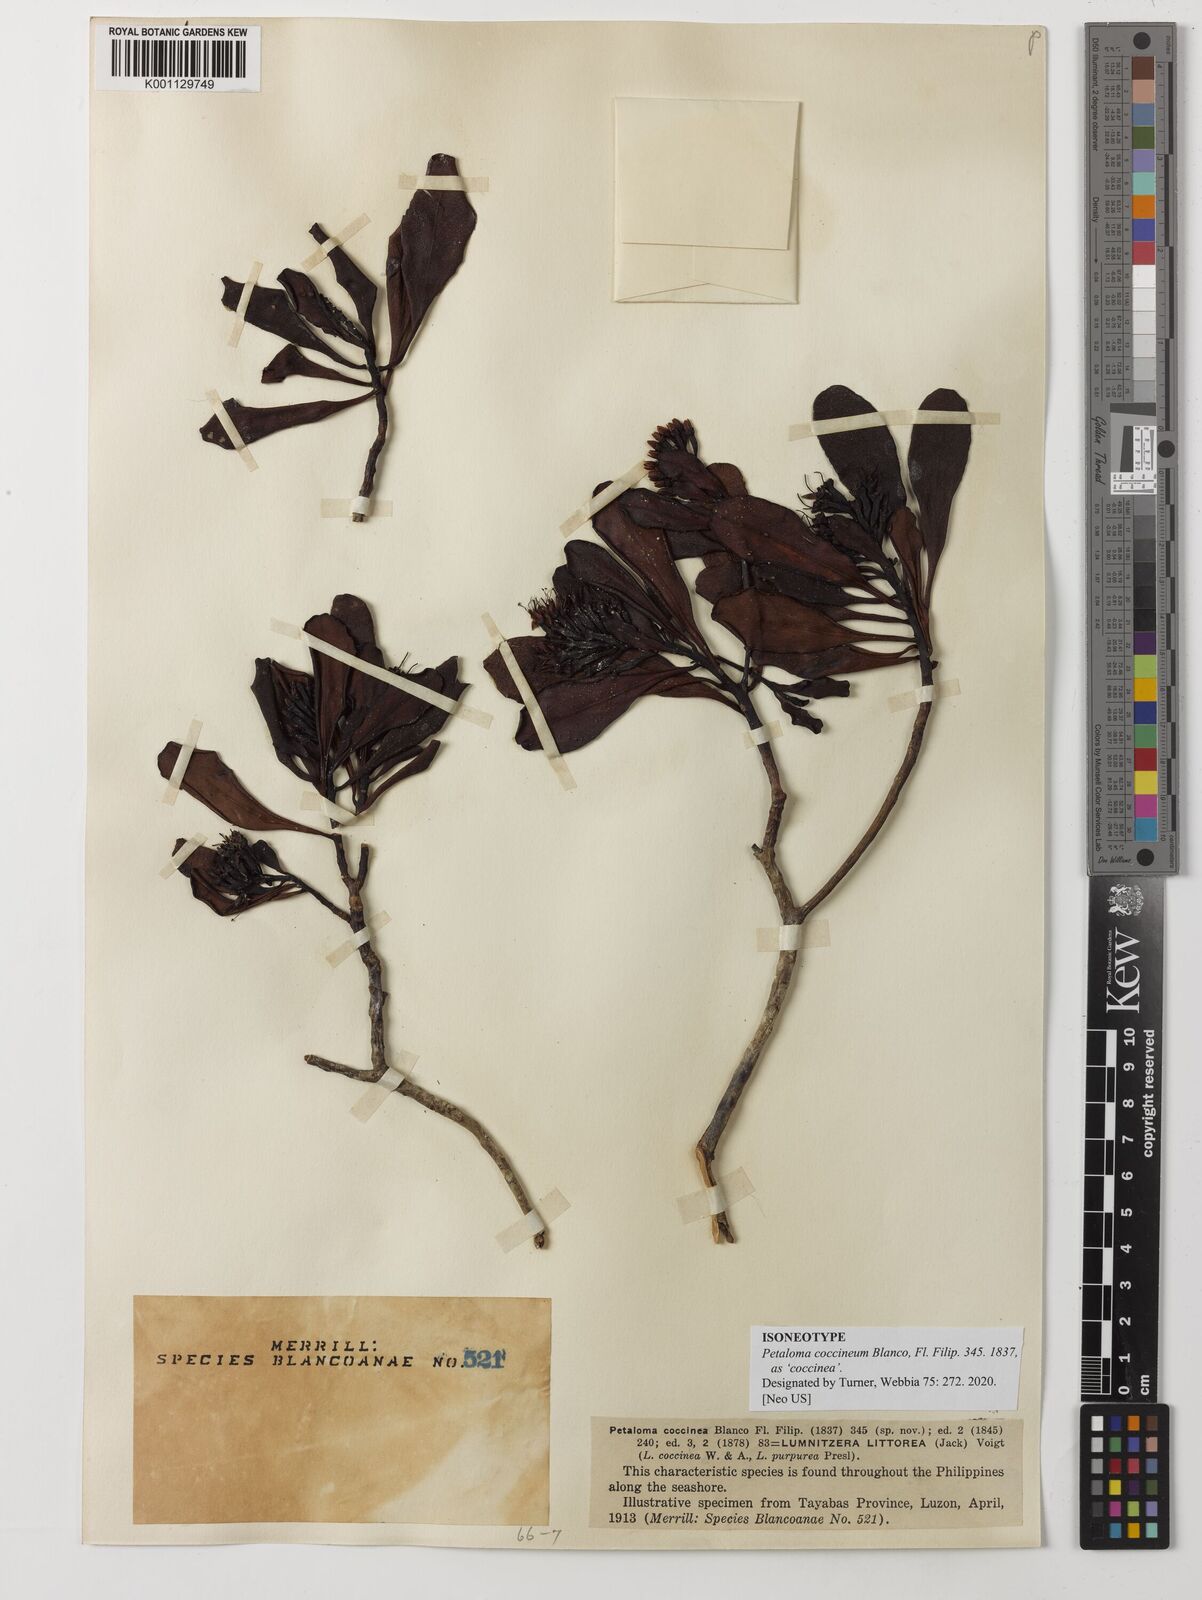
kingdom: Plantae
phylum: Tracheophyta
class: Magnoliopsida
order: Myrtales
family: Combretaceae
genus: Lumnitzera
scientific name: Lumnitzera littorea
